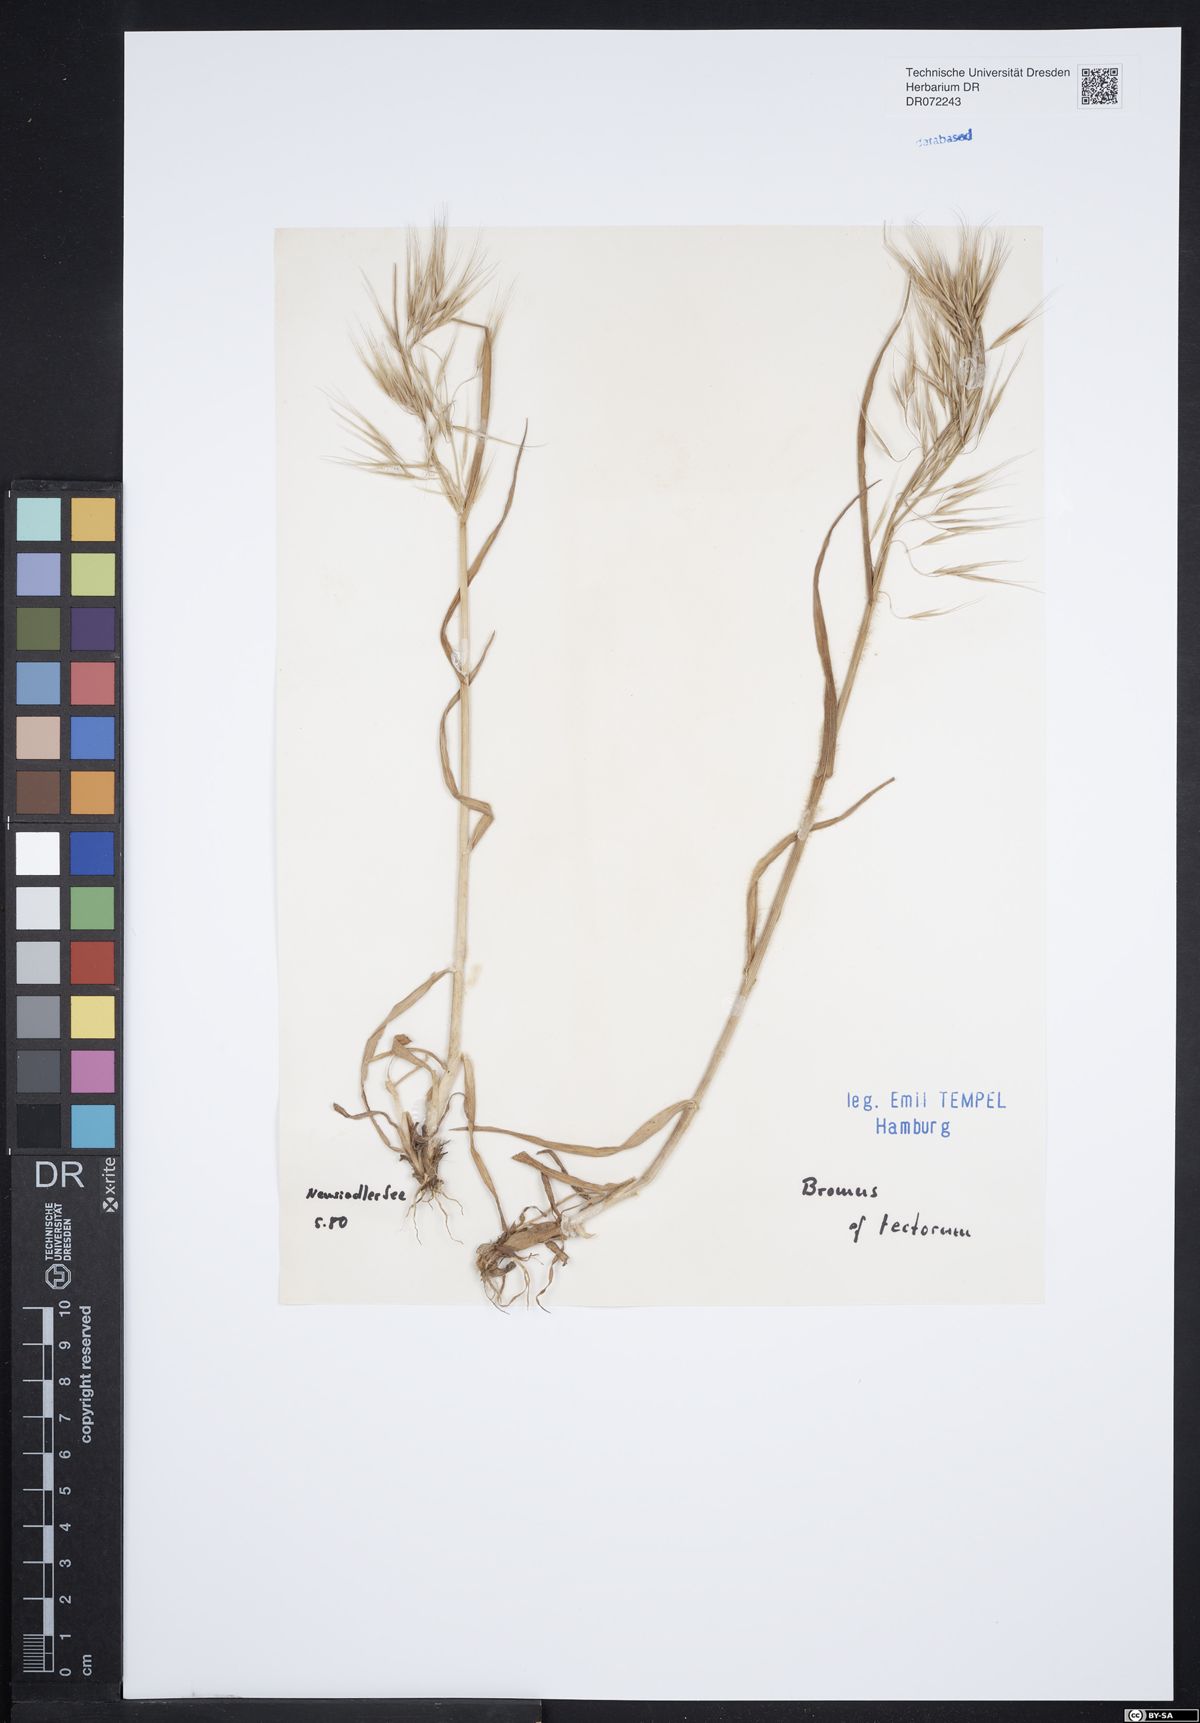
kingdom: Plantae
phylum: Tracheophyta
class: Liliopsida
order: Poales
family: Poaceae
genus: Bromus
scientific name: Bromus tectorum
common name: Cheatgrass
